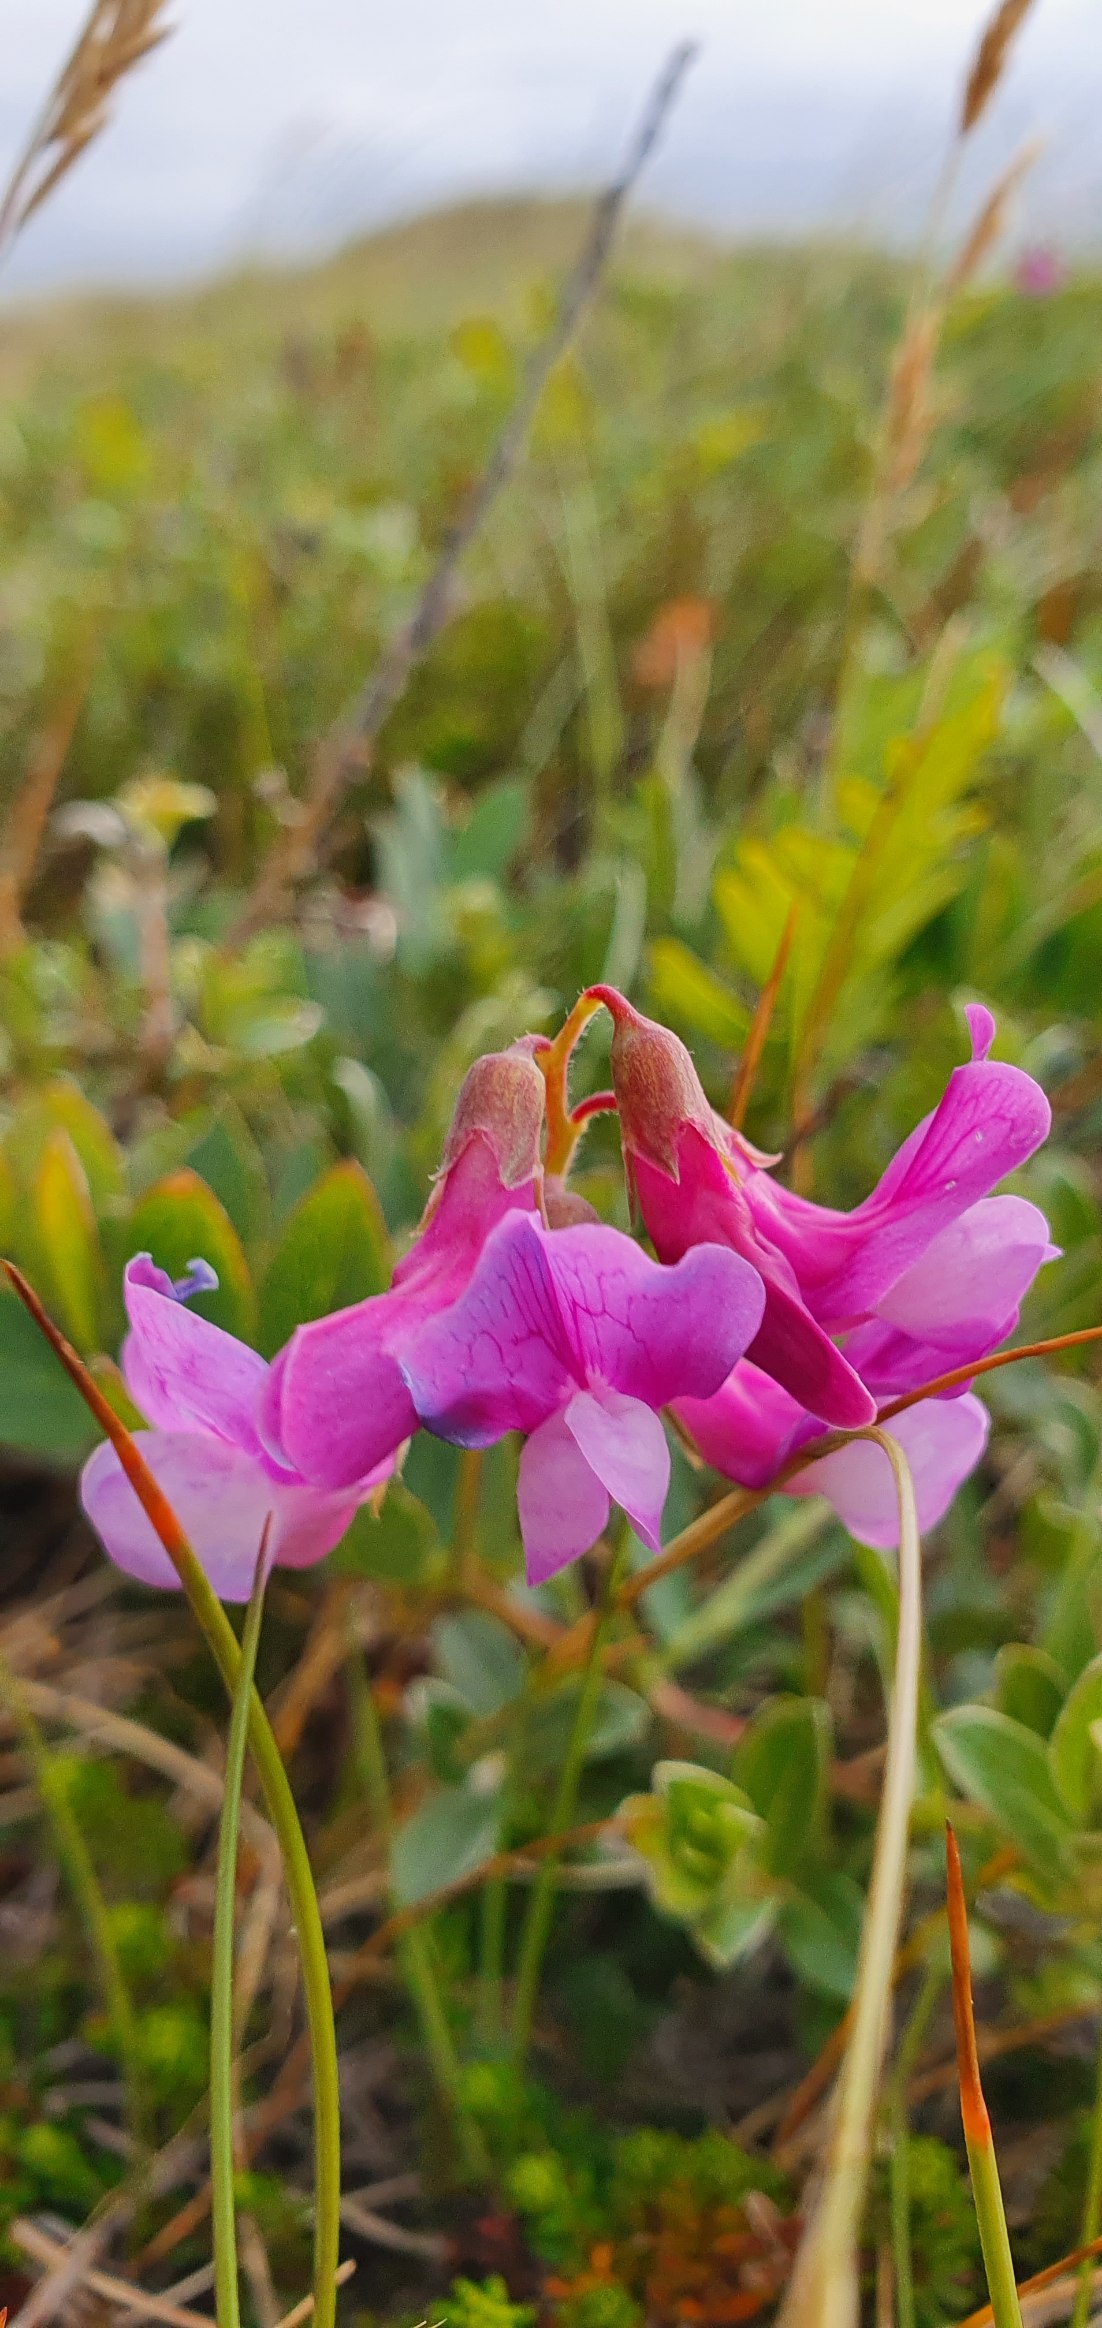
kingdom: Plantae
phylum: Tracheophyta
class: Magnoliopsida
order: Fabales
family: Fabaceae
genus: Lathyrus
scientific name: Lathyrus japonicus
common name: Strand-fladbælg
